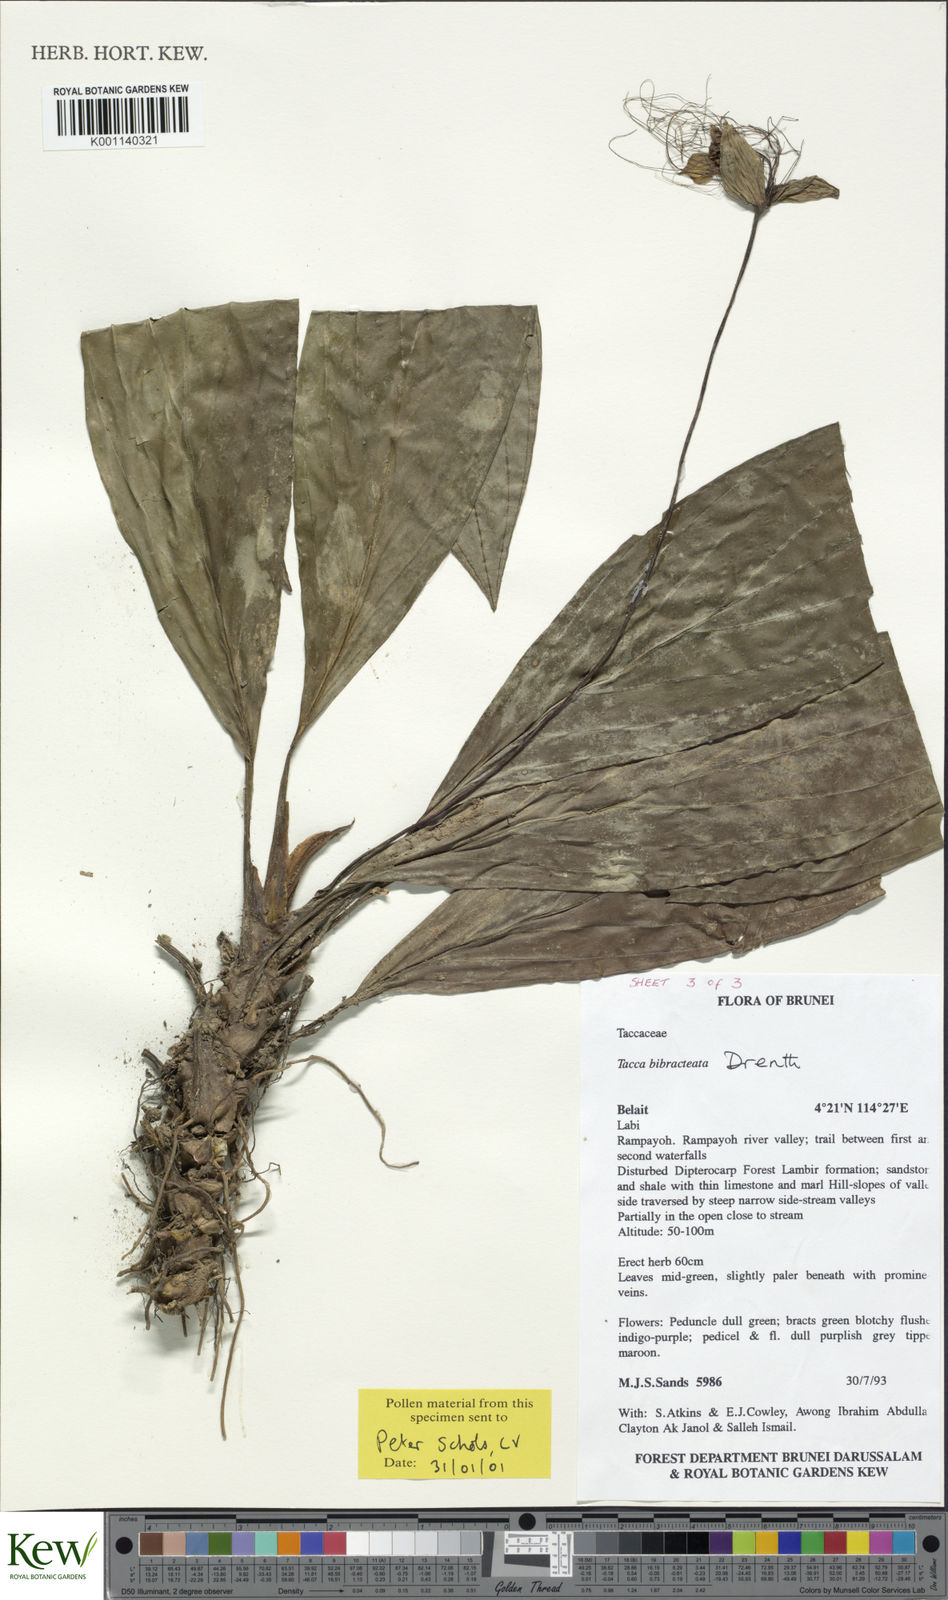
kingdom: Plantae
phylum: Tracheophyta
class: Liliopsida
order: Dioscoreales
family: Dioscoreaceae
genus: Tacca
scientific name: Tacca bibracteata
